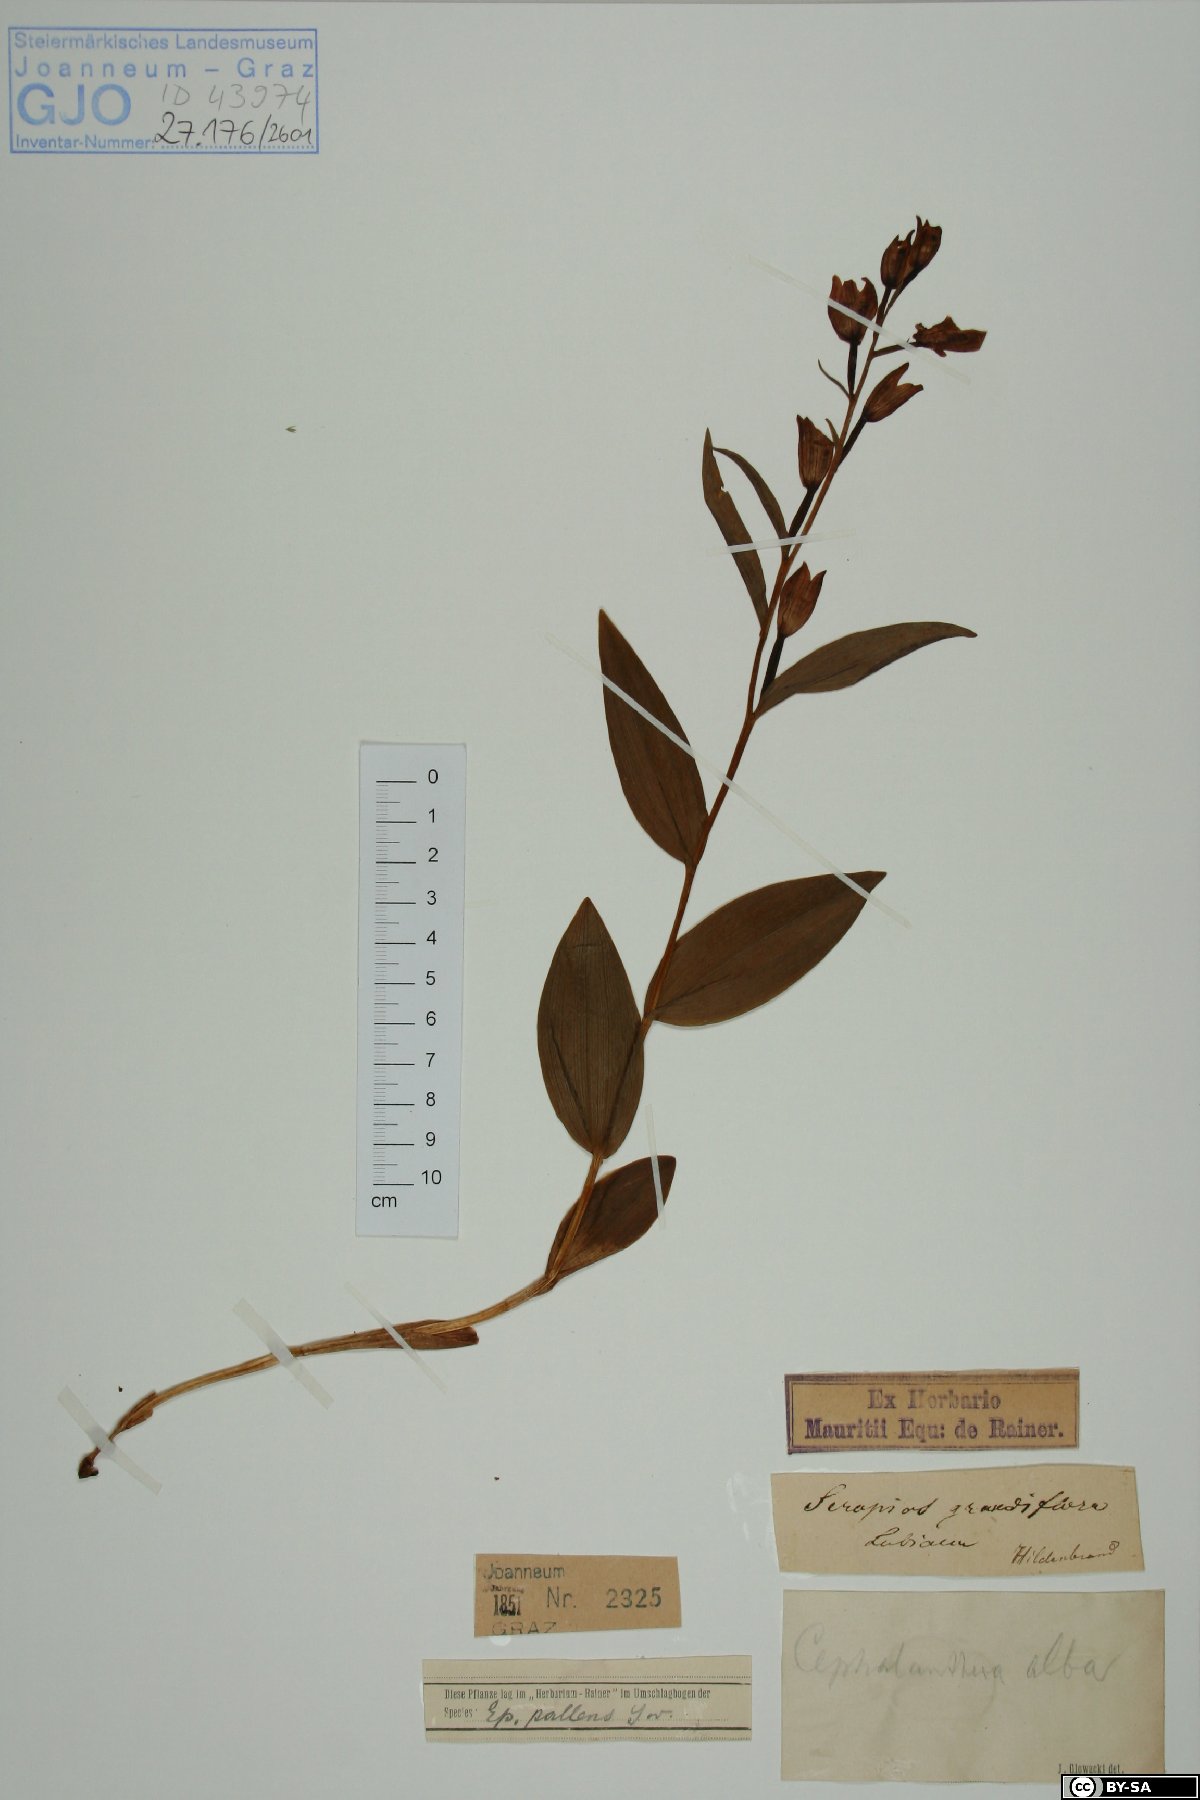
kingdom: Plantae
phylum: Tracheophyta
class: Liliopsida
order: Asparagales
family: Orchidaceae
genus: Cephalanthera
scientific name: Cephalanthera damasonium
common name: White helleborine
